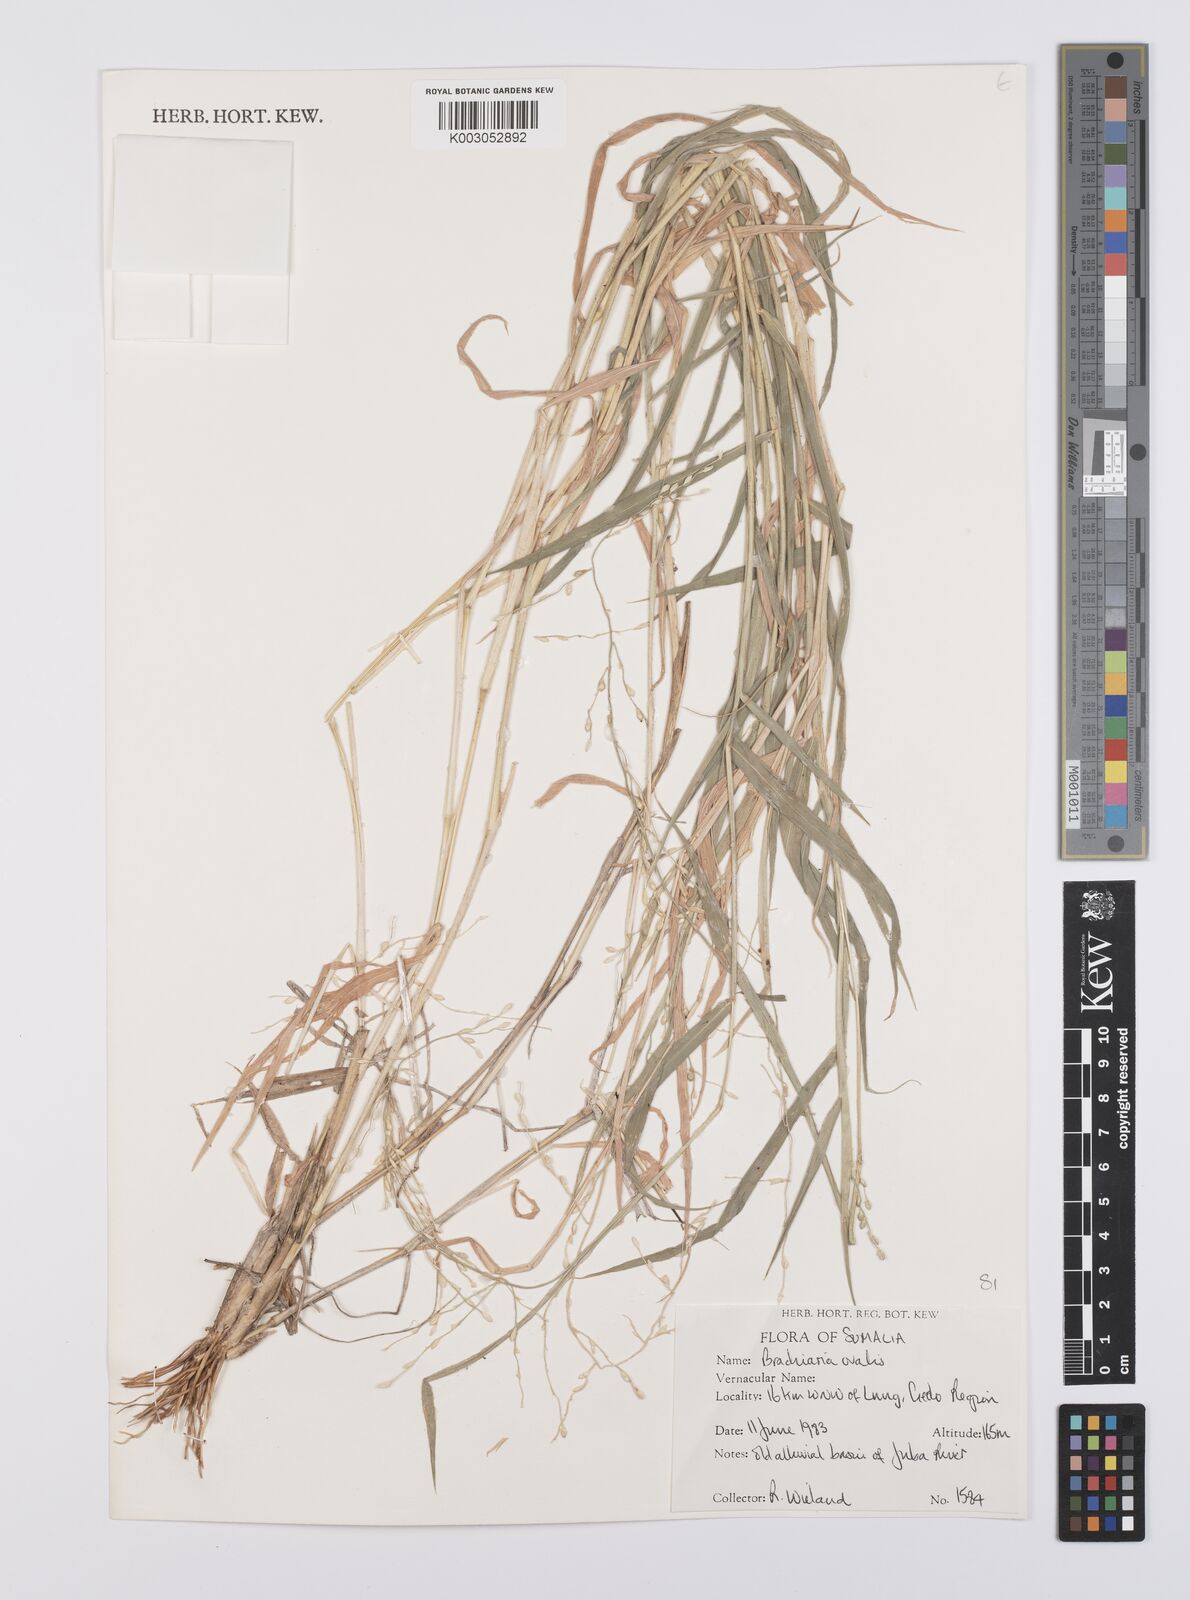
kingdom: Plantae
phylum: Tracheophyta
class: Liliopsida
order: Poales
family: Poaceae
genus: Urochloa
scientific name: Urochloa ovalis
